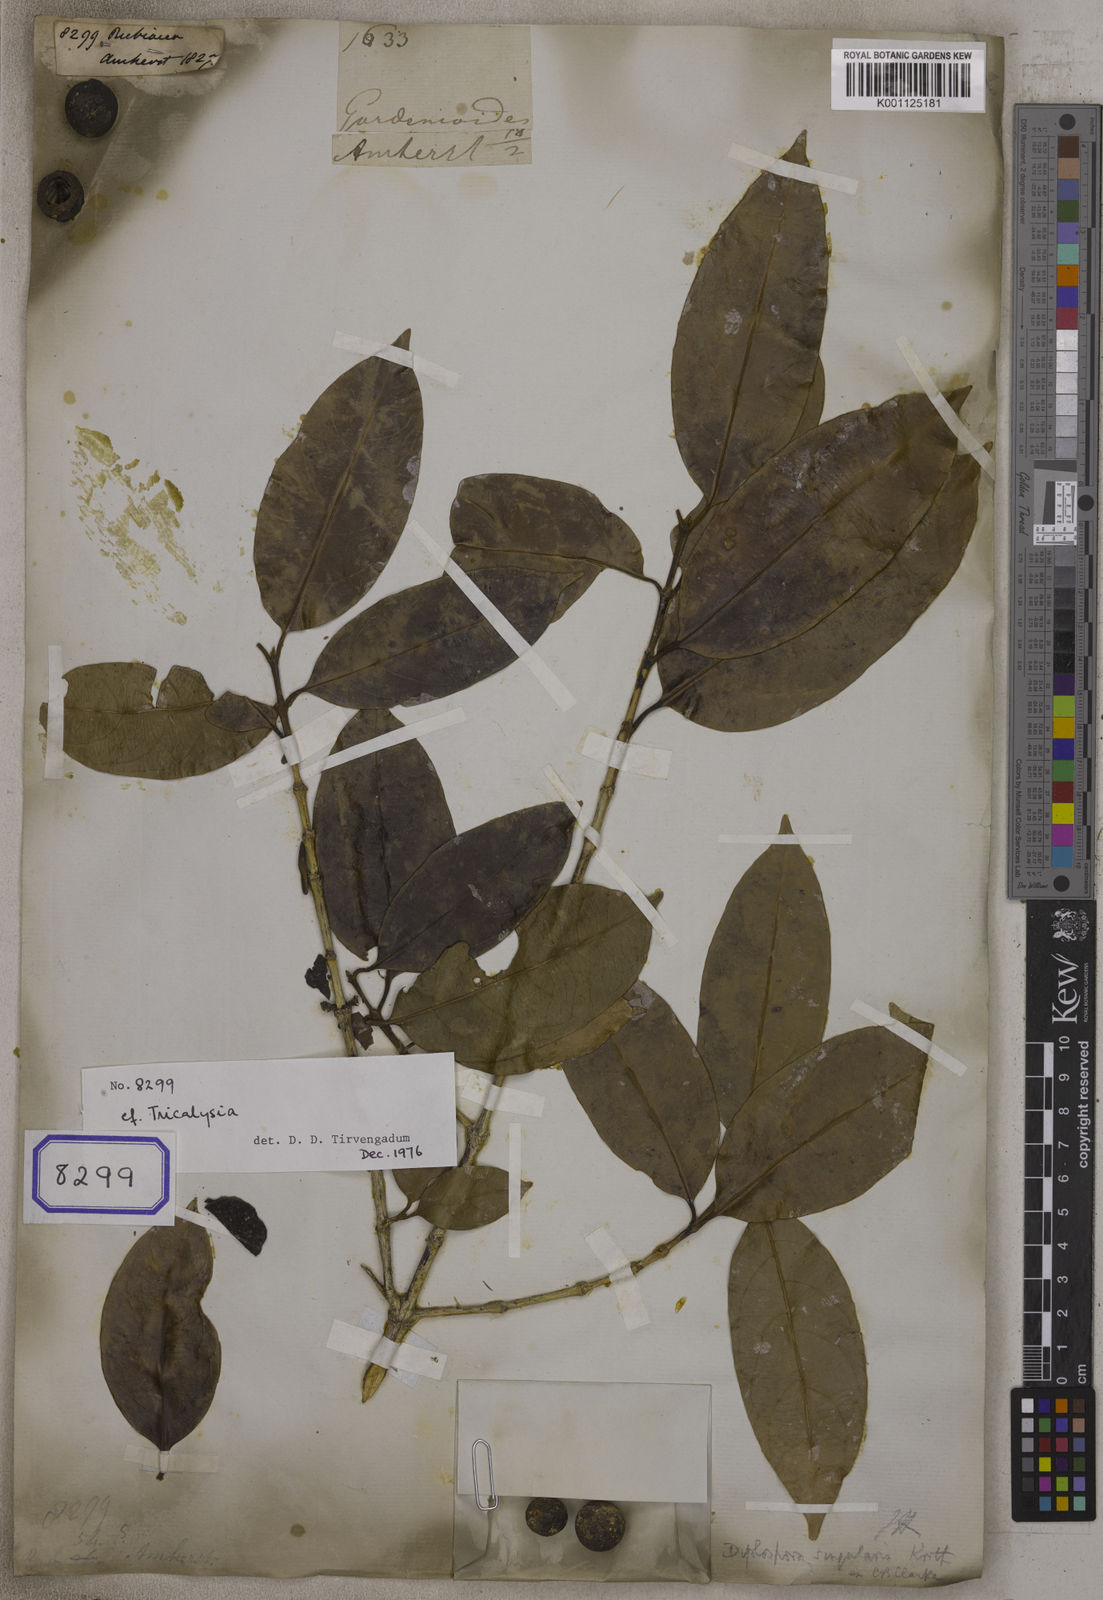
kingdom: Plantae
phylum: Tracheophyta
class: Magnoliopsida
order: Gentianales
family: Rubiaceae
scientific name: Rubiaceae
